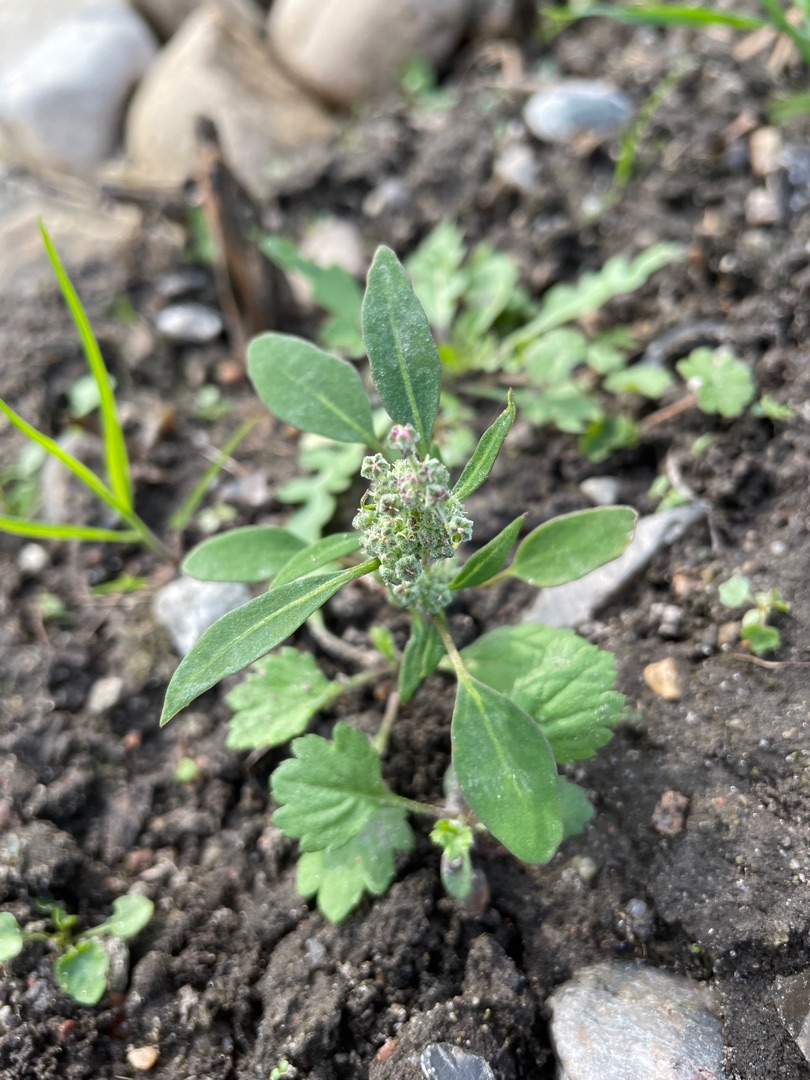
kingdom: Plantae
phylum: Tracheophyta
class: Magnoliopsida
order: Caryophyllales
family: Amaranthaceae
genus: Chenopodium
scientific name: Chenopodium album
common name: Hvidmelet gåsefod
